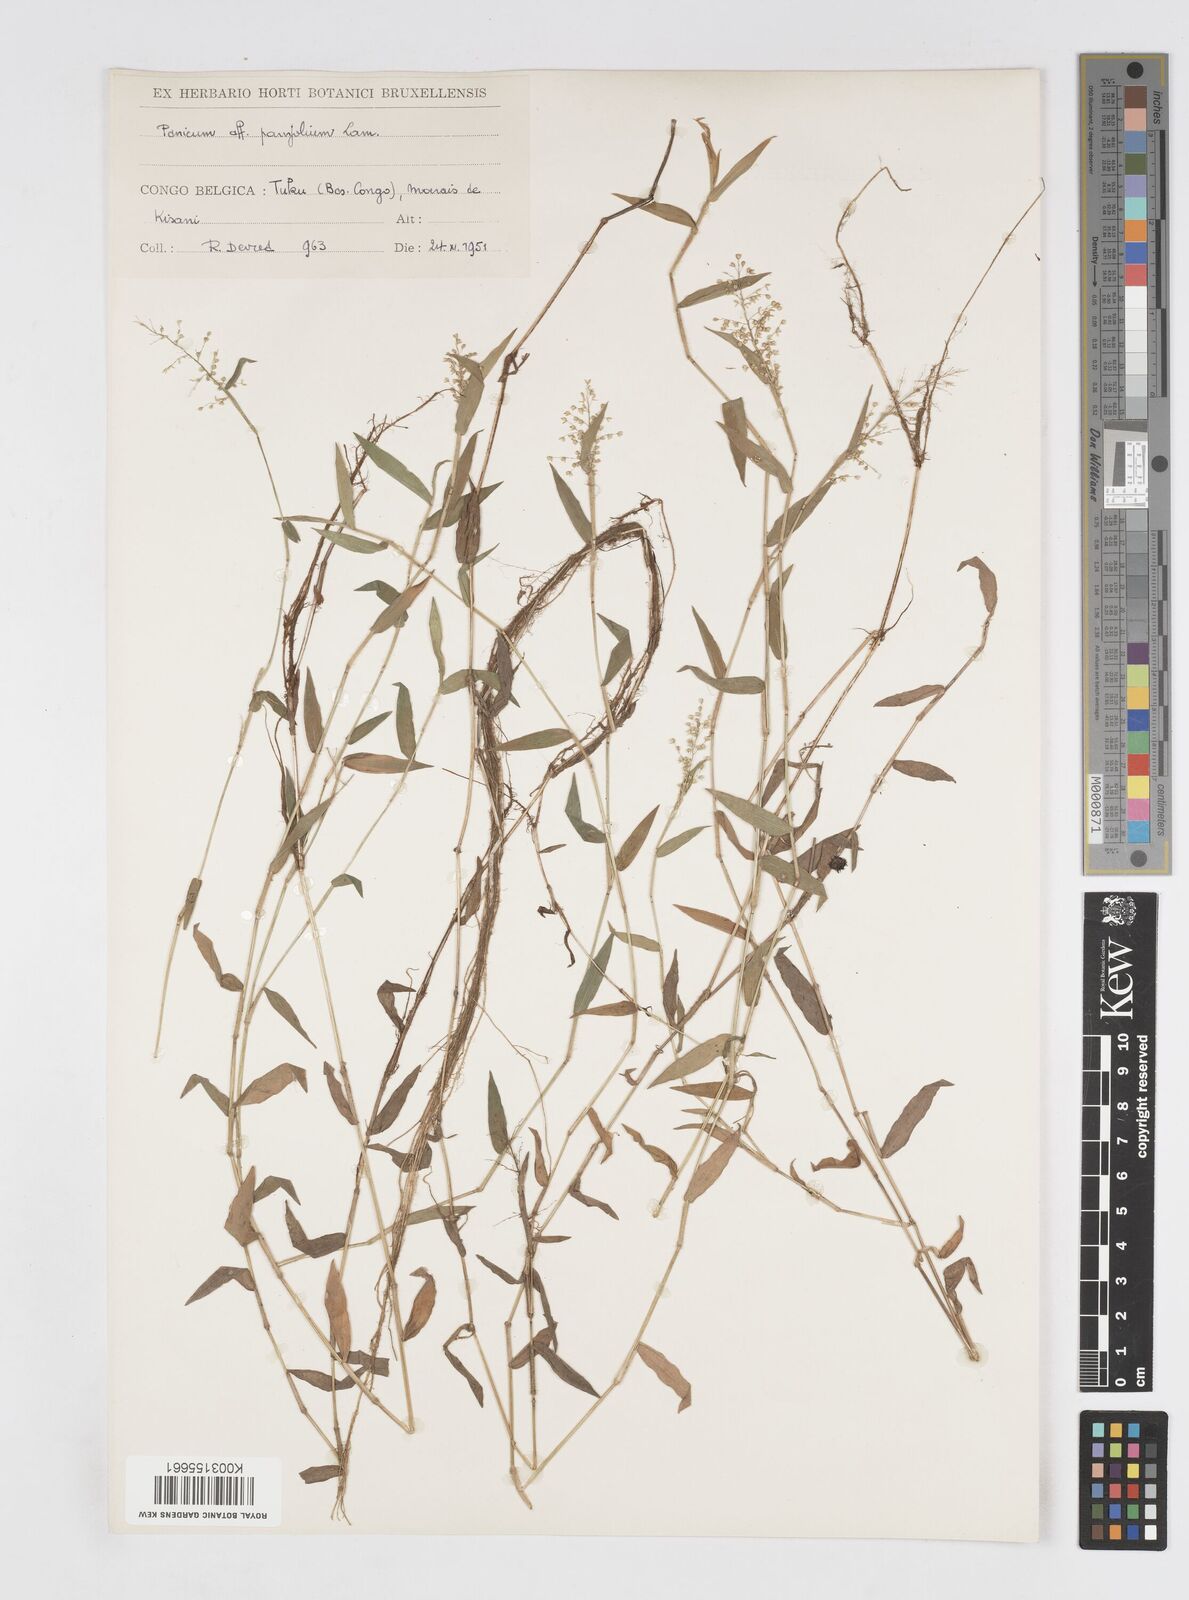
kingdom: Plantae
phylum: Tracheophyta
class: Liliopsida
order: Poales
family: Poaceae
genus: Isachne
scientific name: Isachne kiyalaensis
